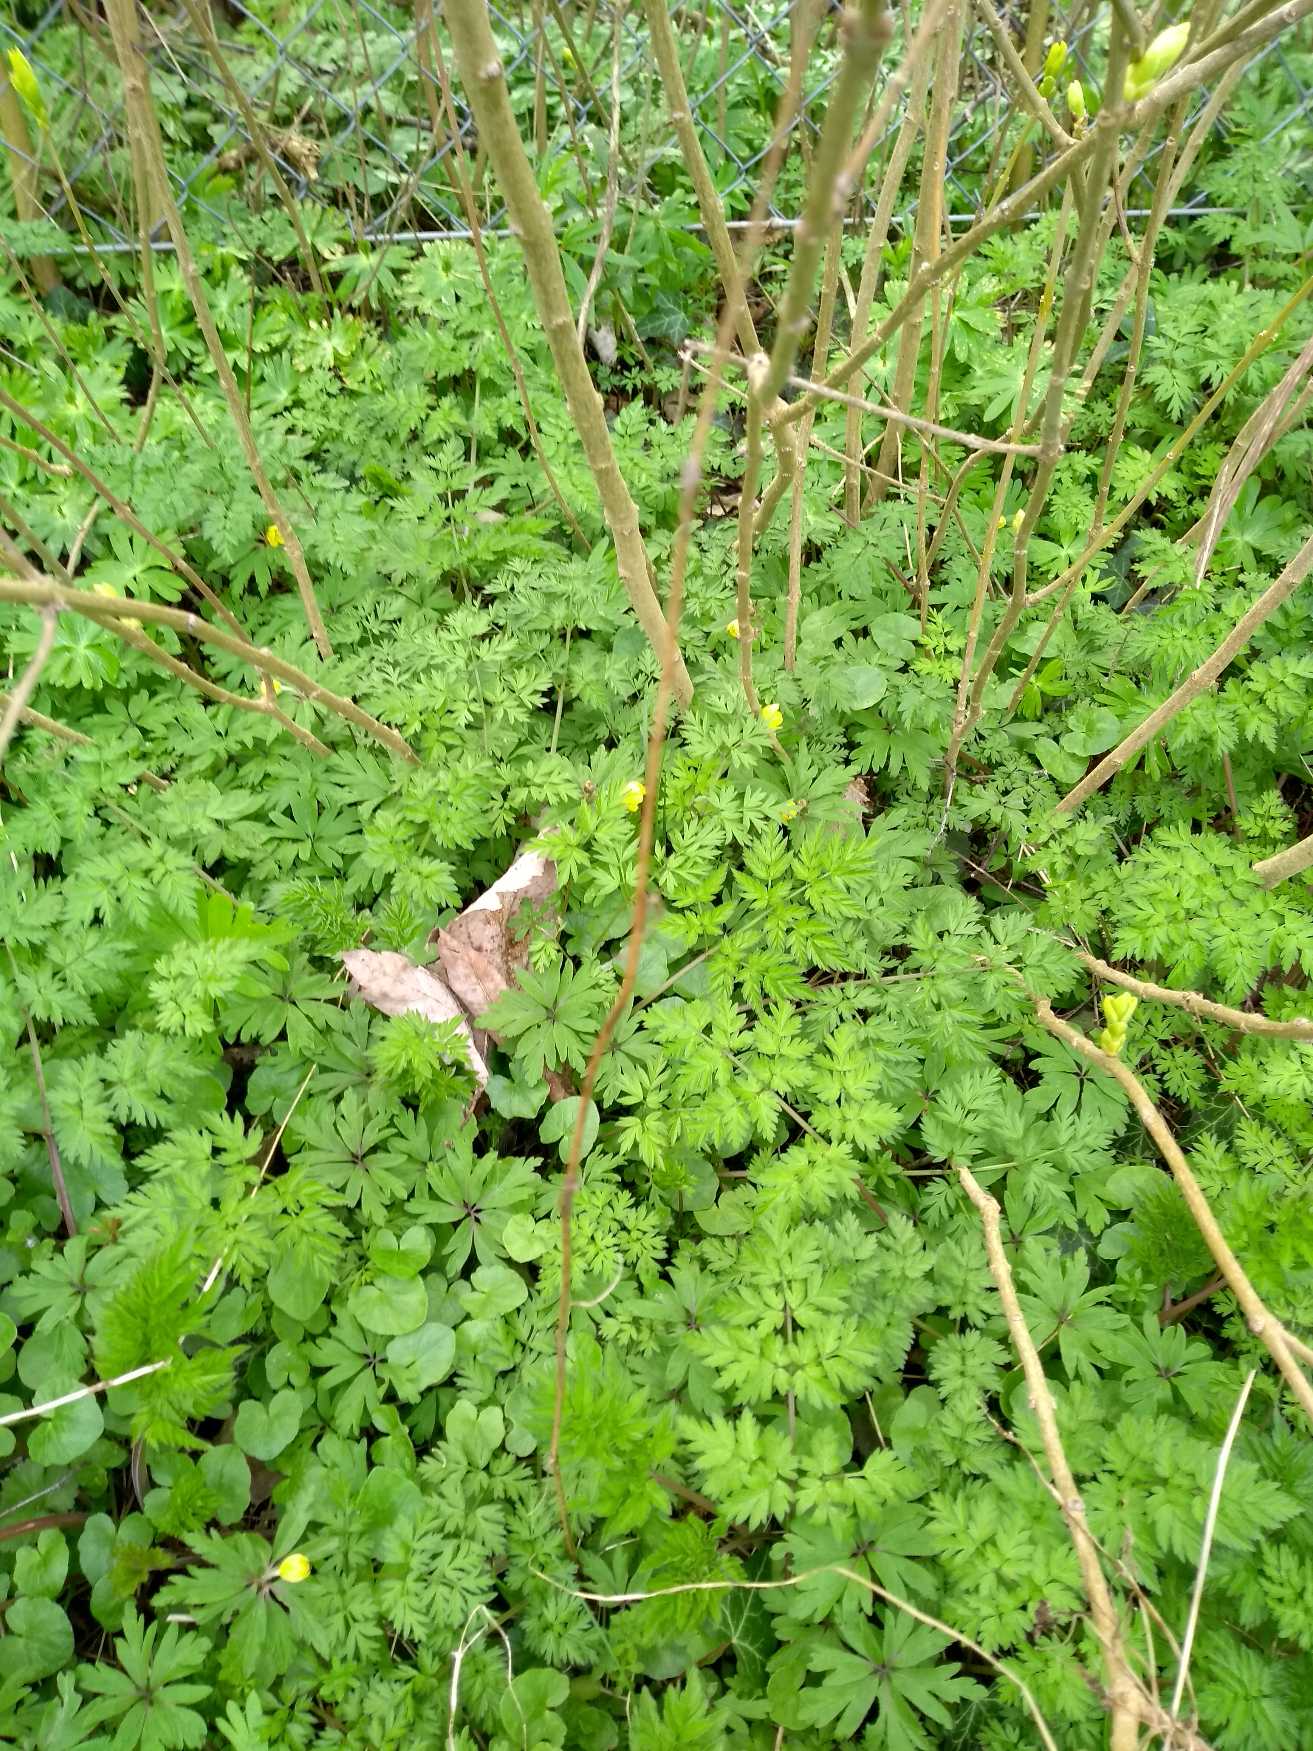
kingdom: Plantae
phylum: Tracheophyta
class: Magnoliopsida
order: Ranunculales
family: Ranunculaceae
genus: Anemone
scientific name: Anemone ranunculoides
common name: Gul anemone
